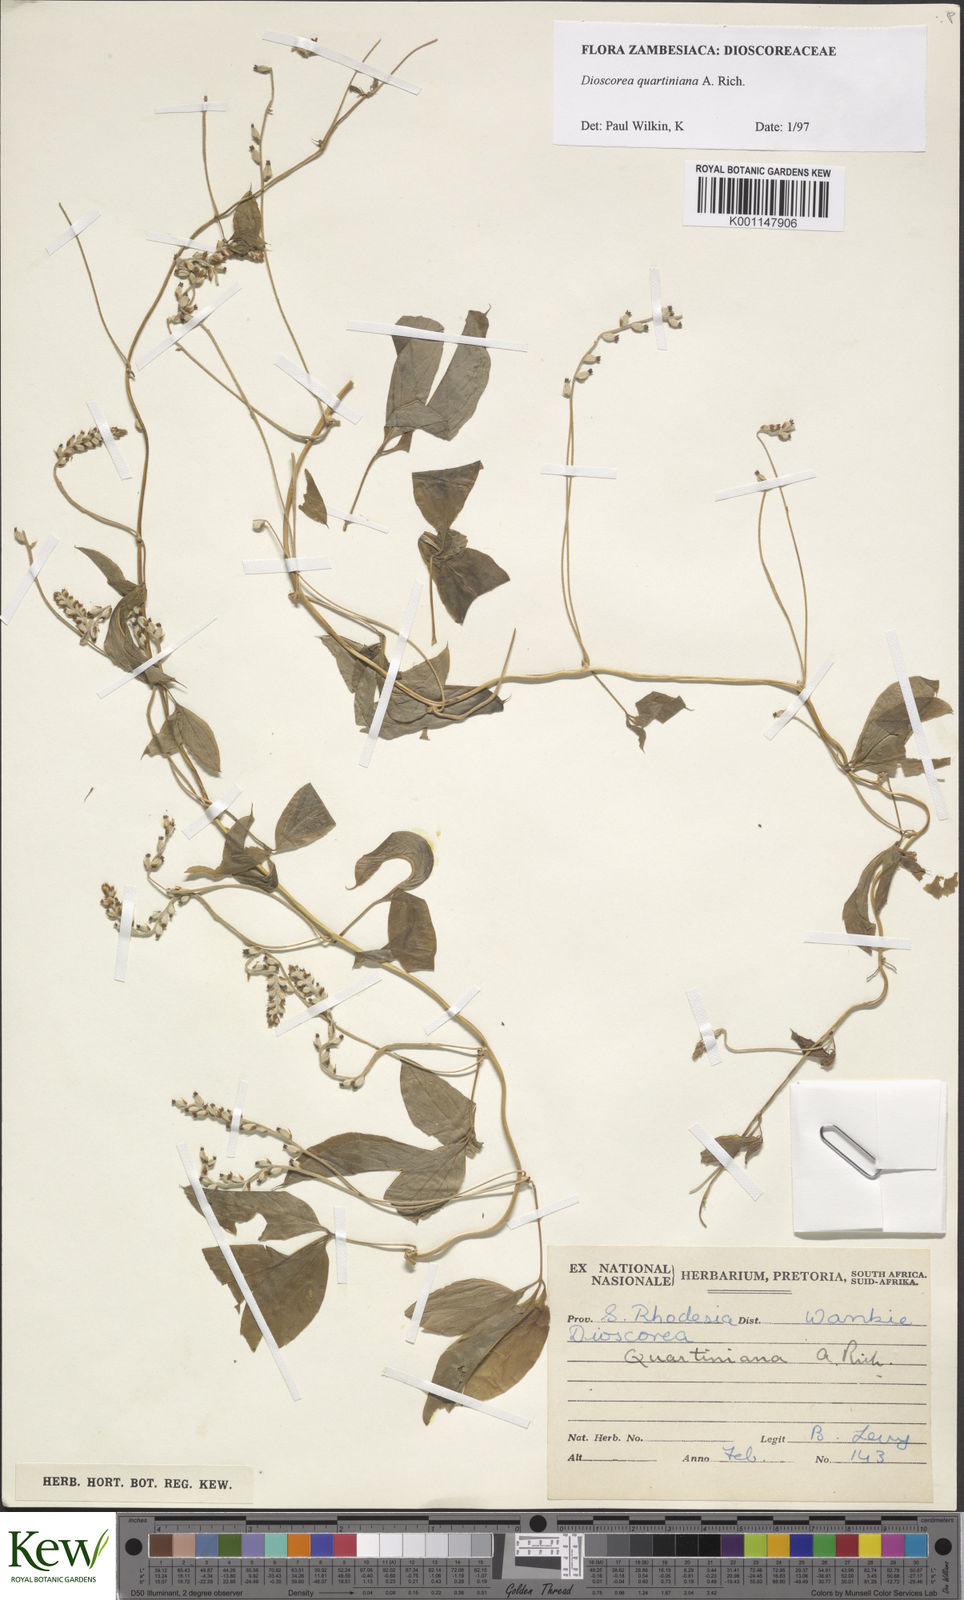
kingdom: Plantae
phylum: Tracheophyta
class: Liliopsida
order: Dioscoreales
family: Dioscoreaceae
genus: Dioscorea
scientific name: Dioscorea quartiniana
